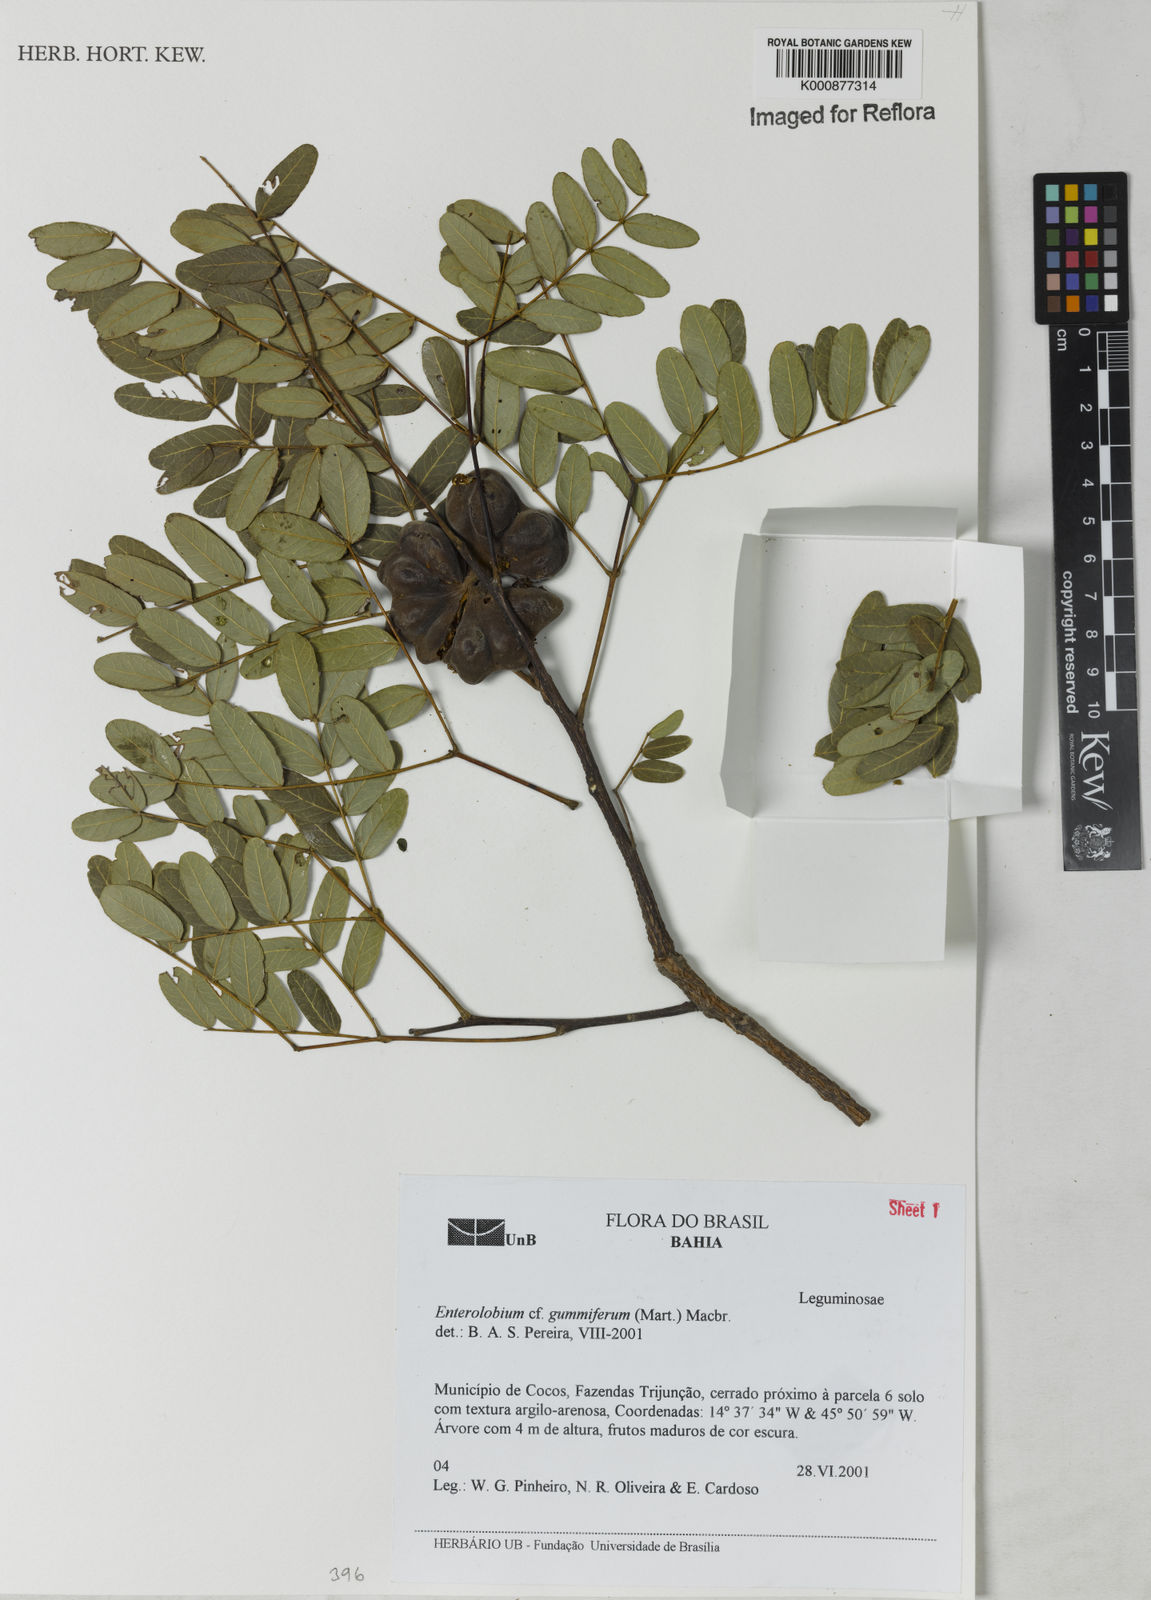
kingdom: Plantae
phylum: Tracheophyta
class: Magnoliopsida
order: Fabales
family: Fabaceae
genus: Enterolobium
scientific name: Enterolobium gummiferum
